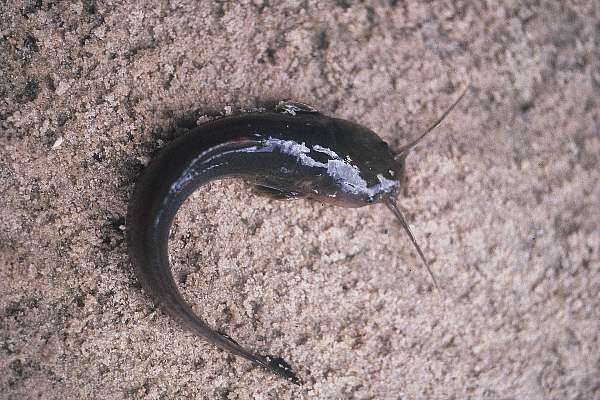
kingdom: Animalia
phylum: Chordata
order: Siluriformes
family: Clariidae
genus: Clarias
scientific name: Clarias
